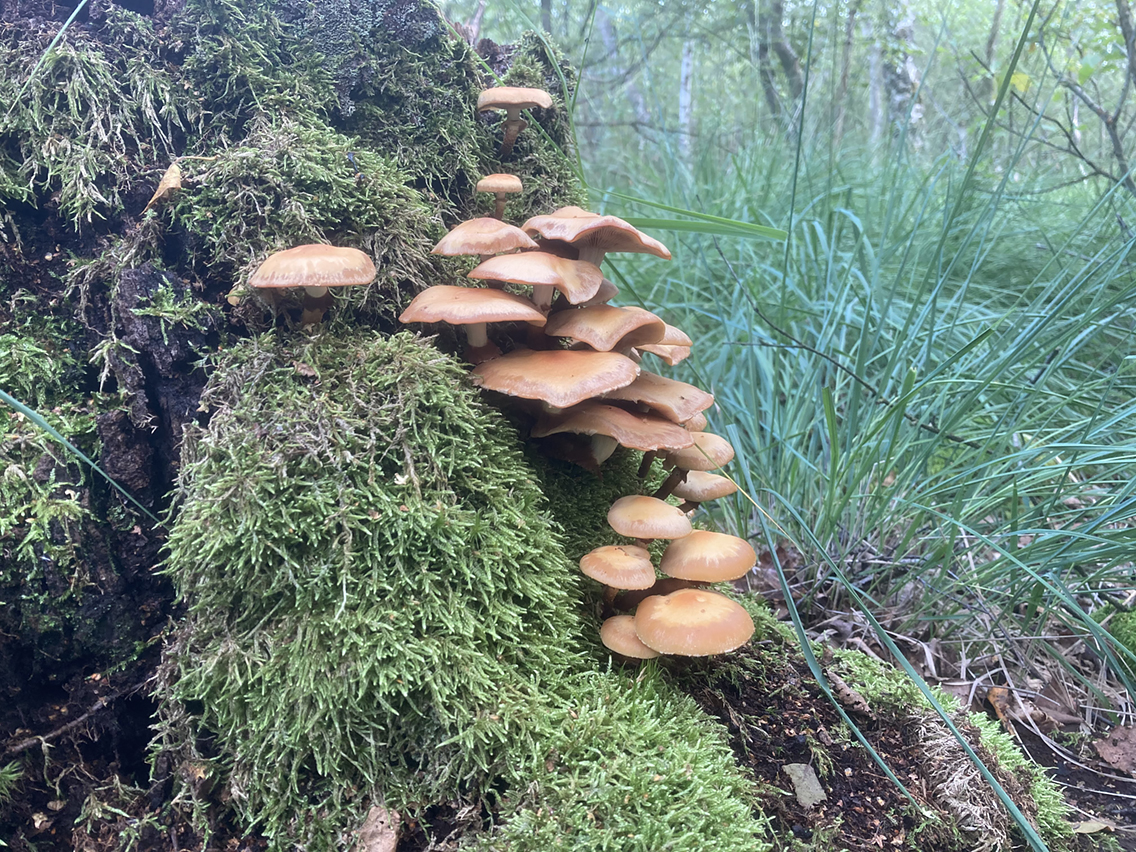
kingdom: Fungi
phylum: Basidiomycota
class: Agaricomycetes
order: Agaricales
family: Strophariaceae
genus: Kuehneromyces
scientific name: Kuehneromyces mutabilis
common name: foranderlig skælhat
